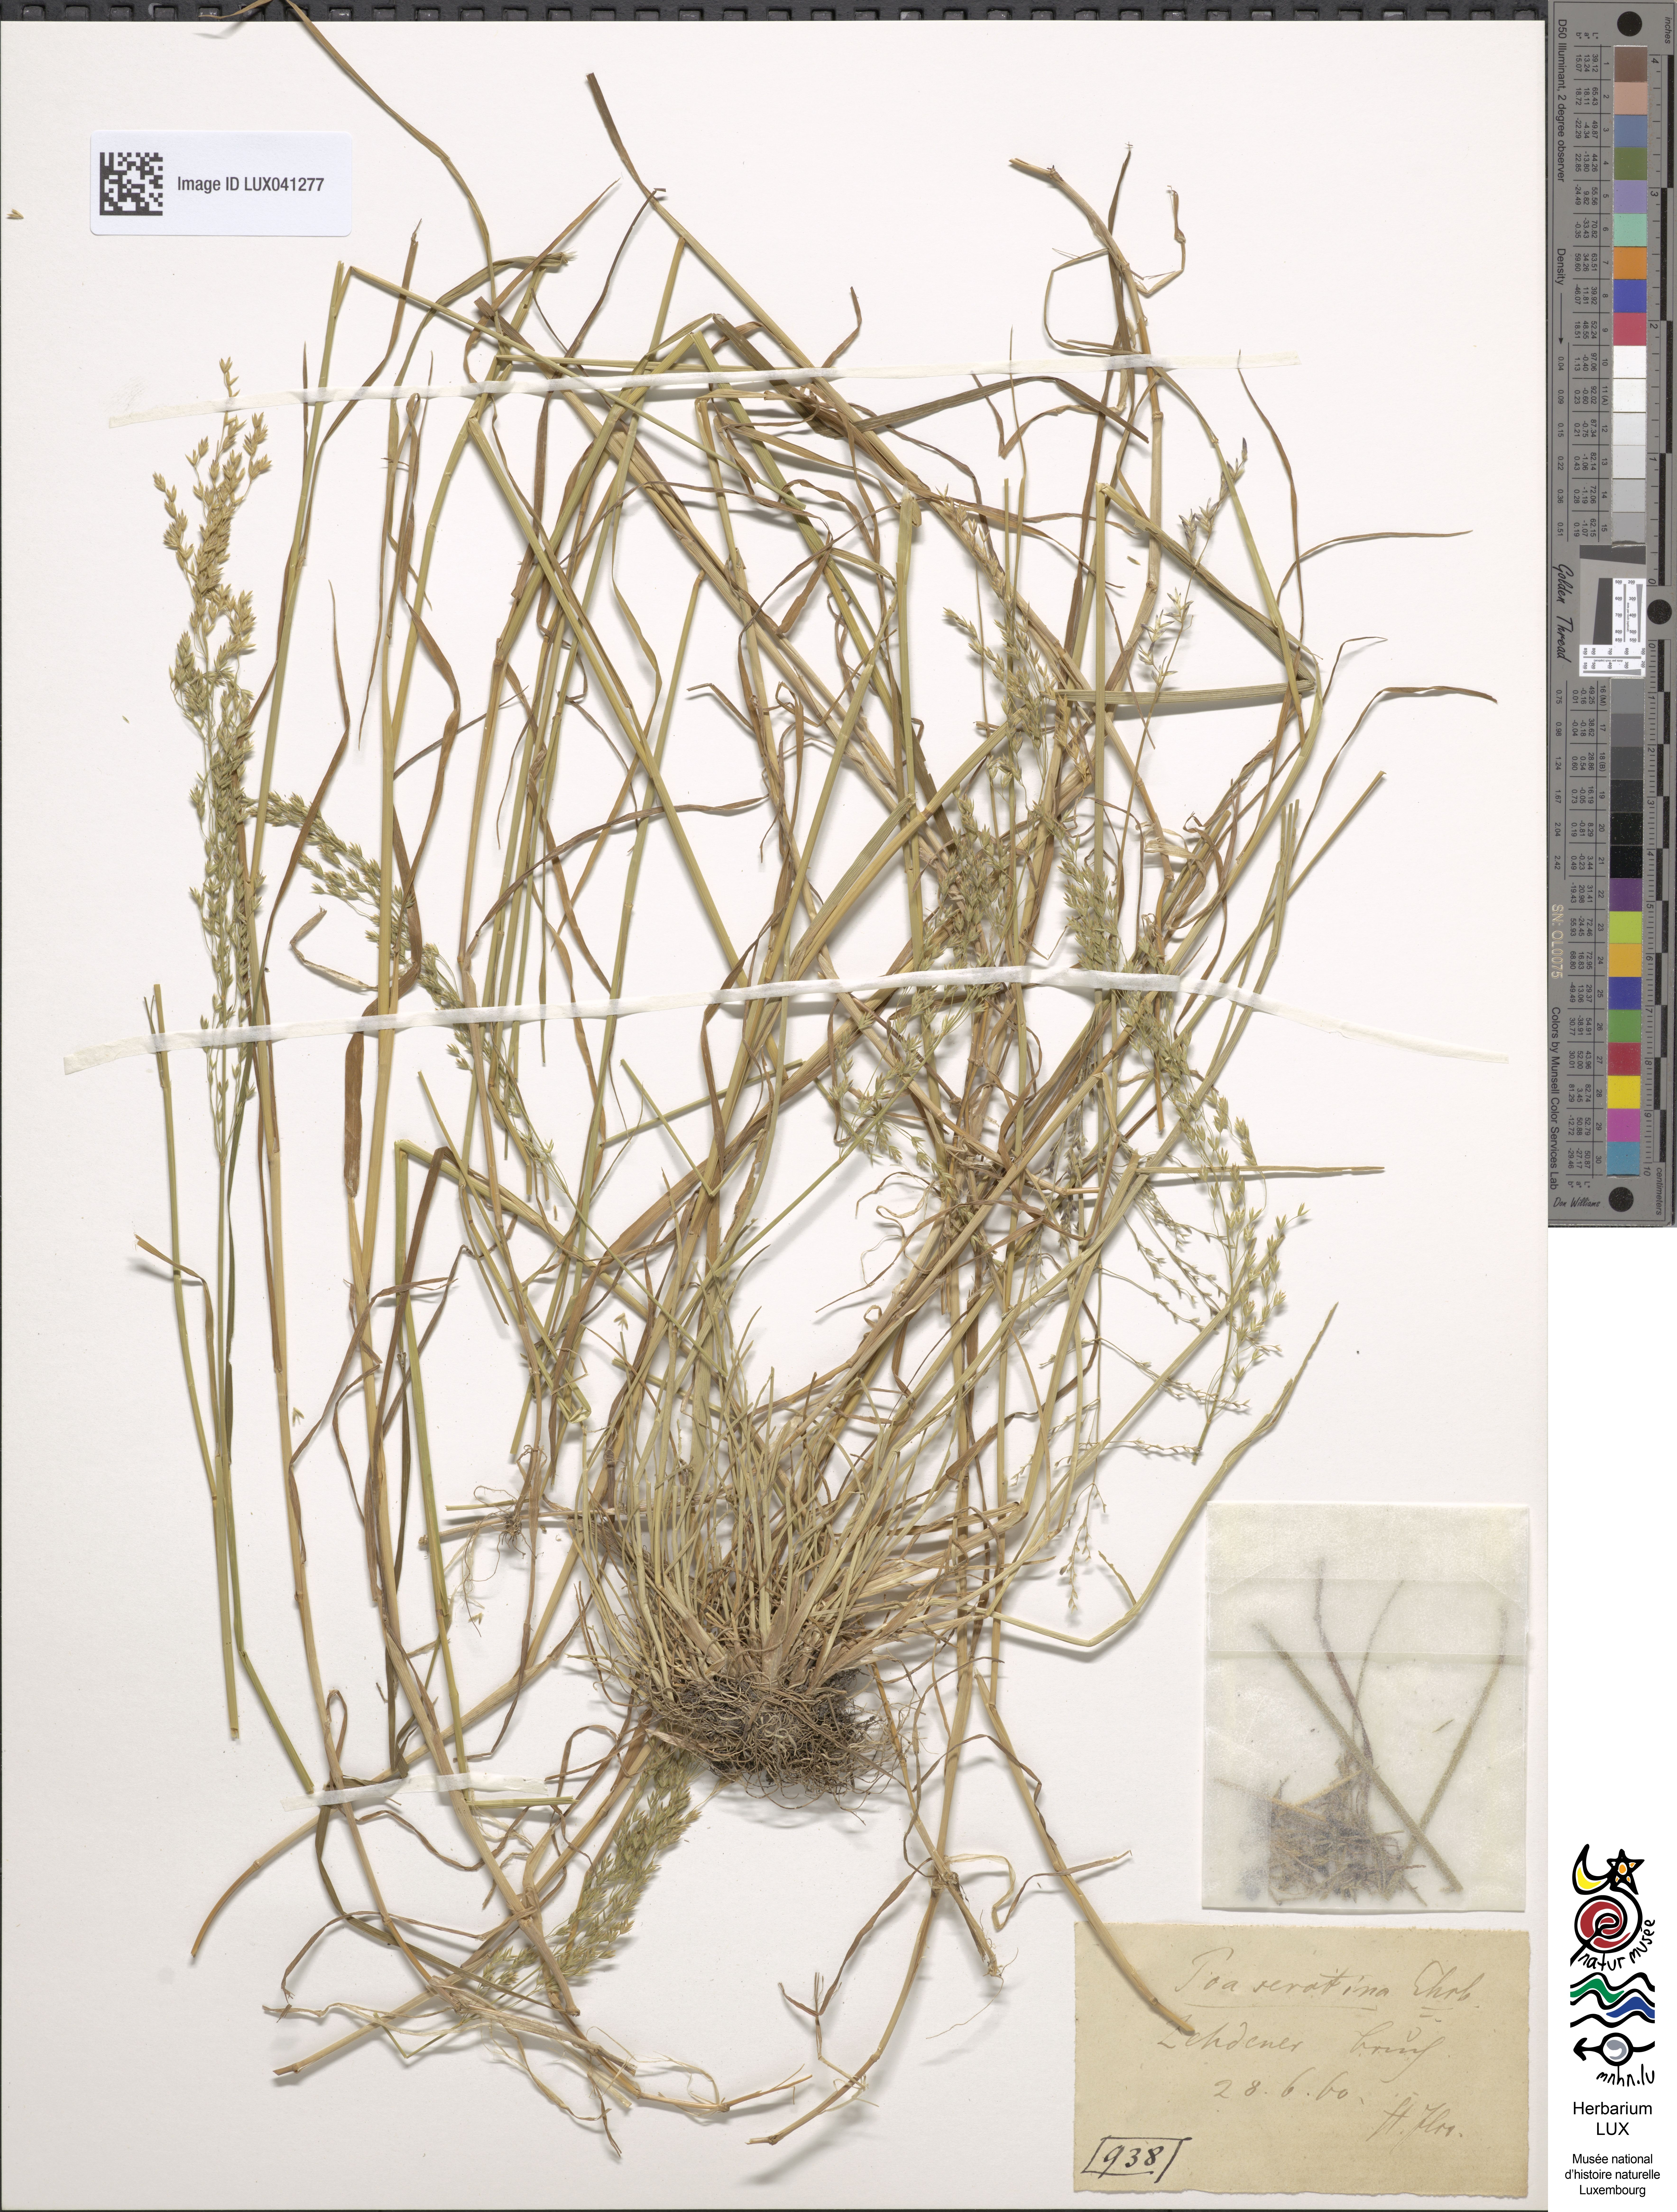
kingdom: Plantae
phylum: Tracheophyta
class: Liliopsida
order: Poales
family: Poaceae
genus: Poa
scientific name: Poa palustris
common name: Swamp meadow-grass
